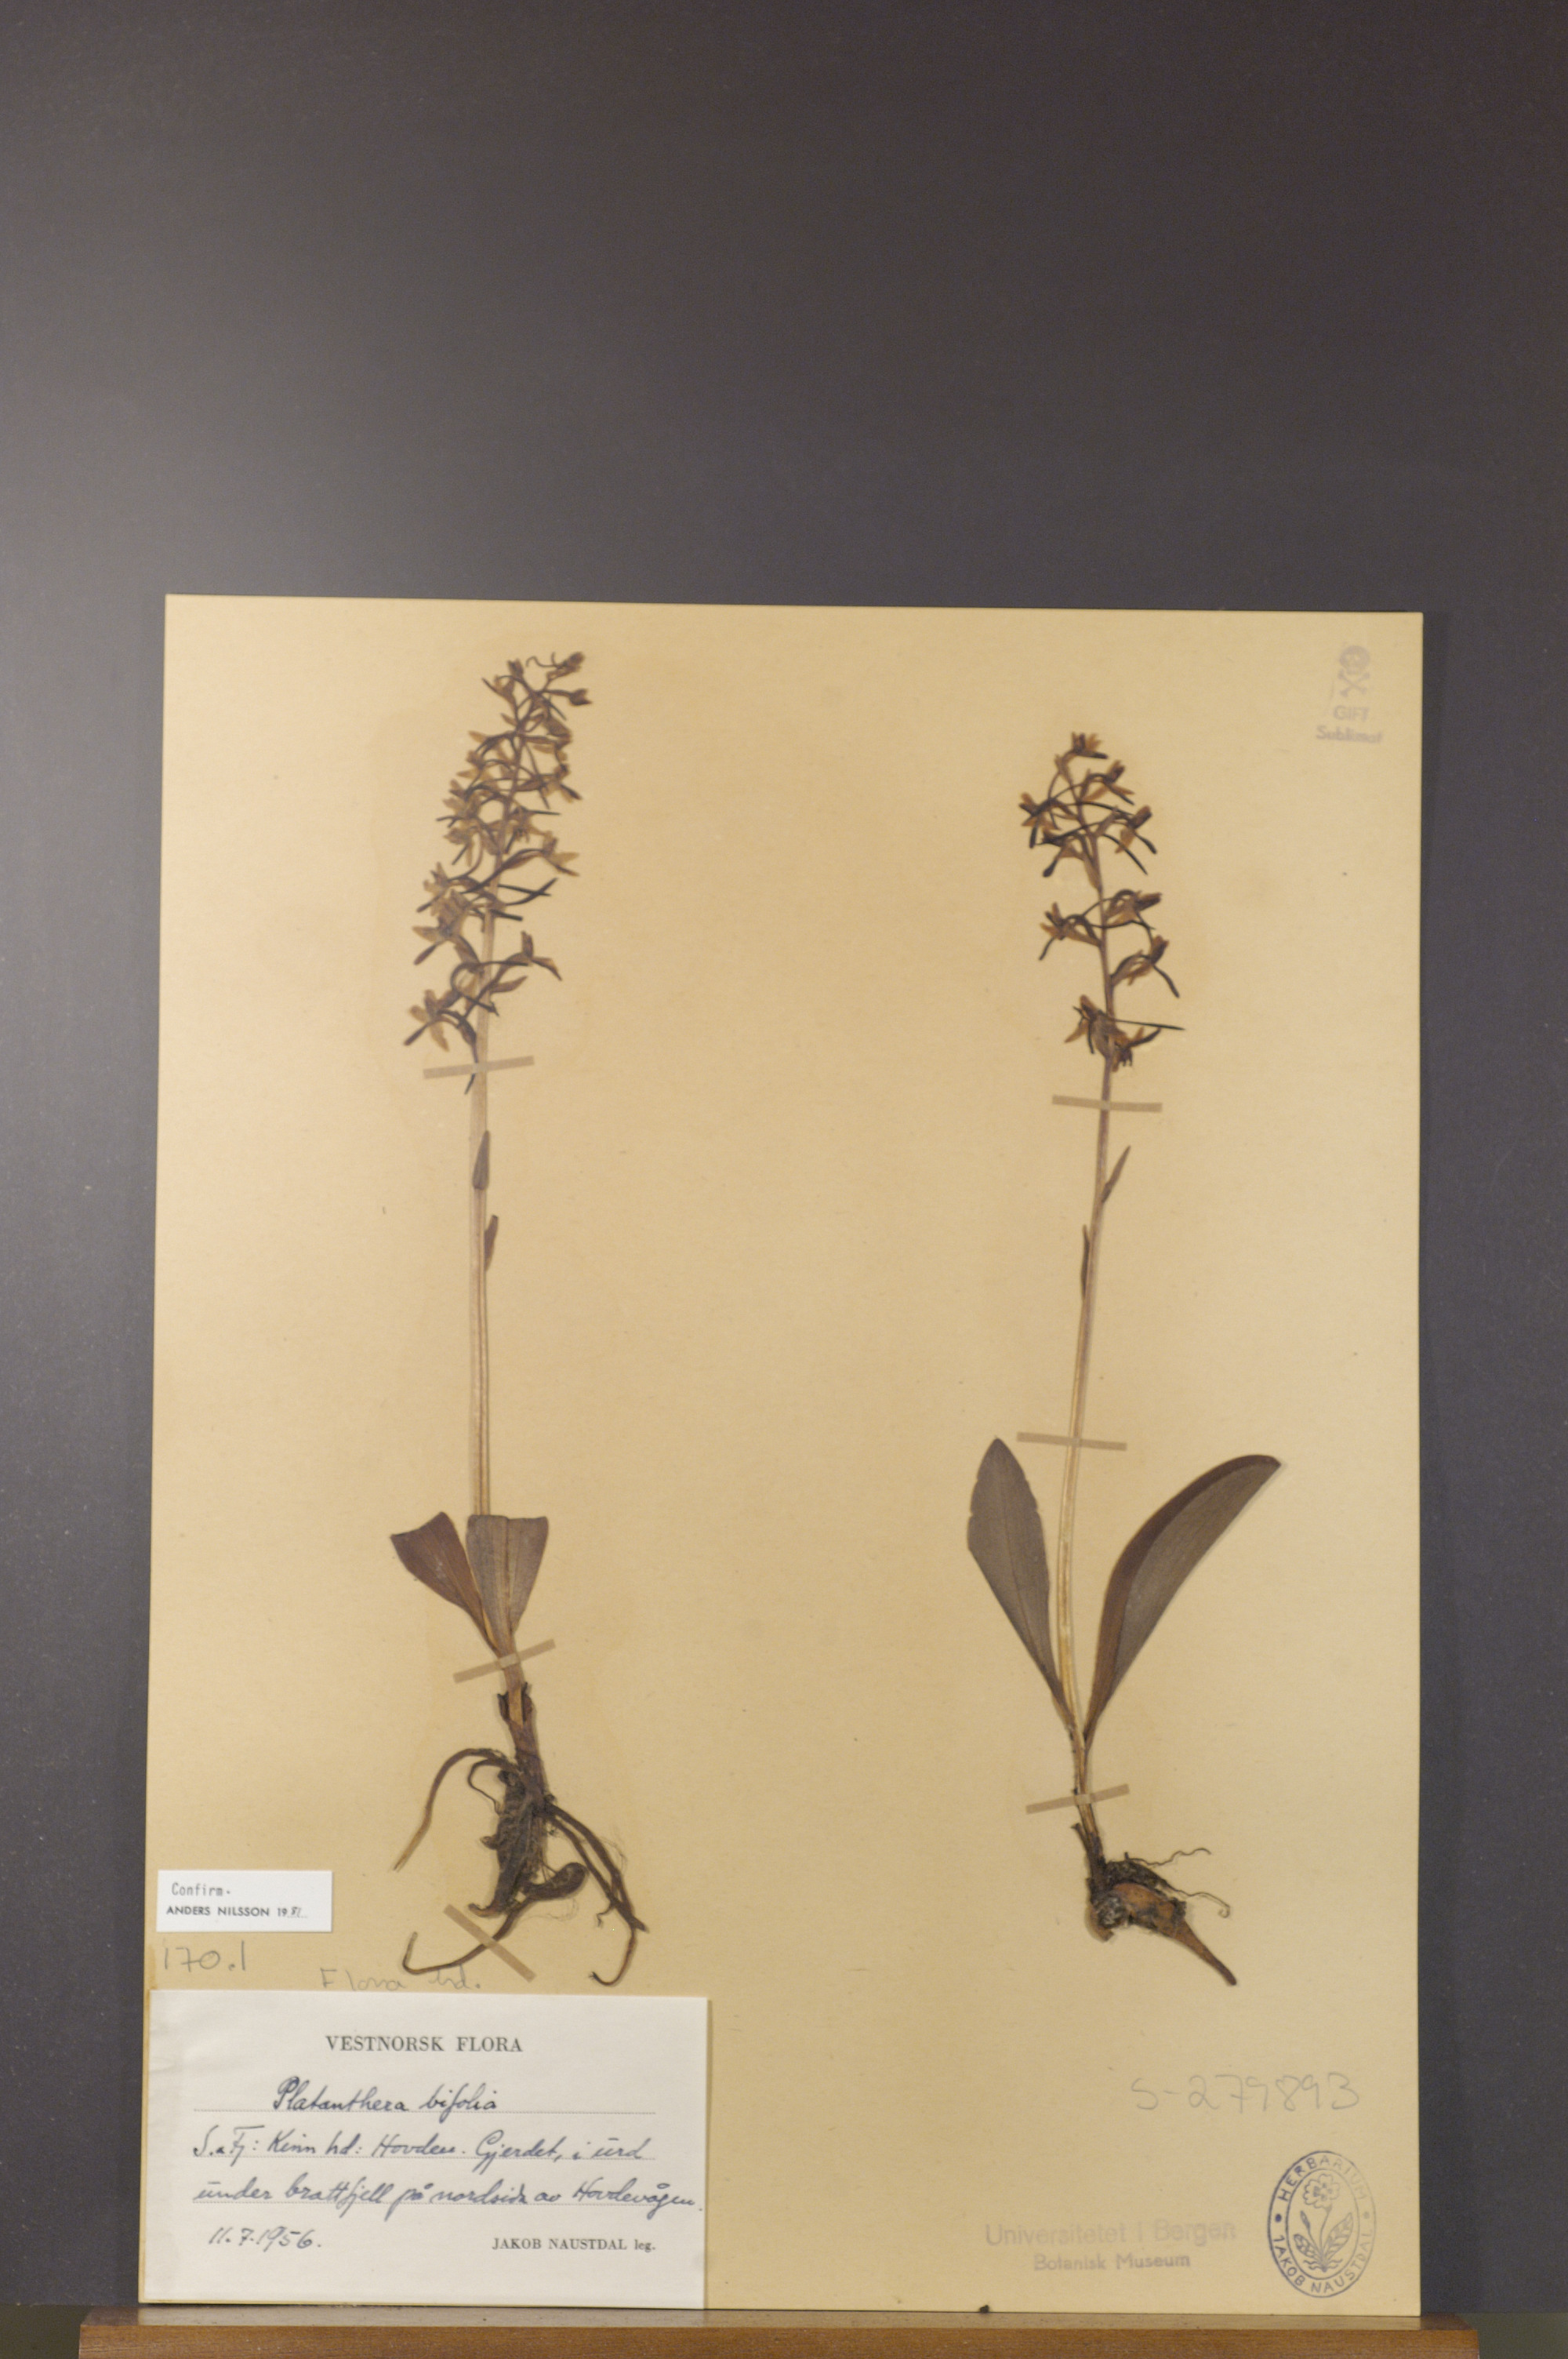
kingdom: Plantae
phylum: Tracheophyta
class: Liliopsida
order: Asparagales
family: Orchidaceae
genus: Platanthera
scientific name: Platanthera bifolia
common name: Lesser butterfly-orchid
